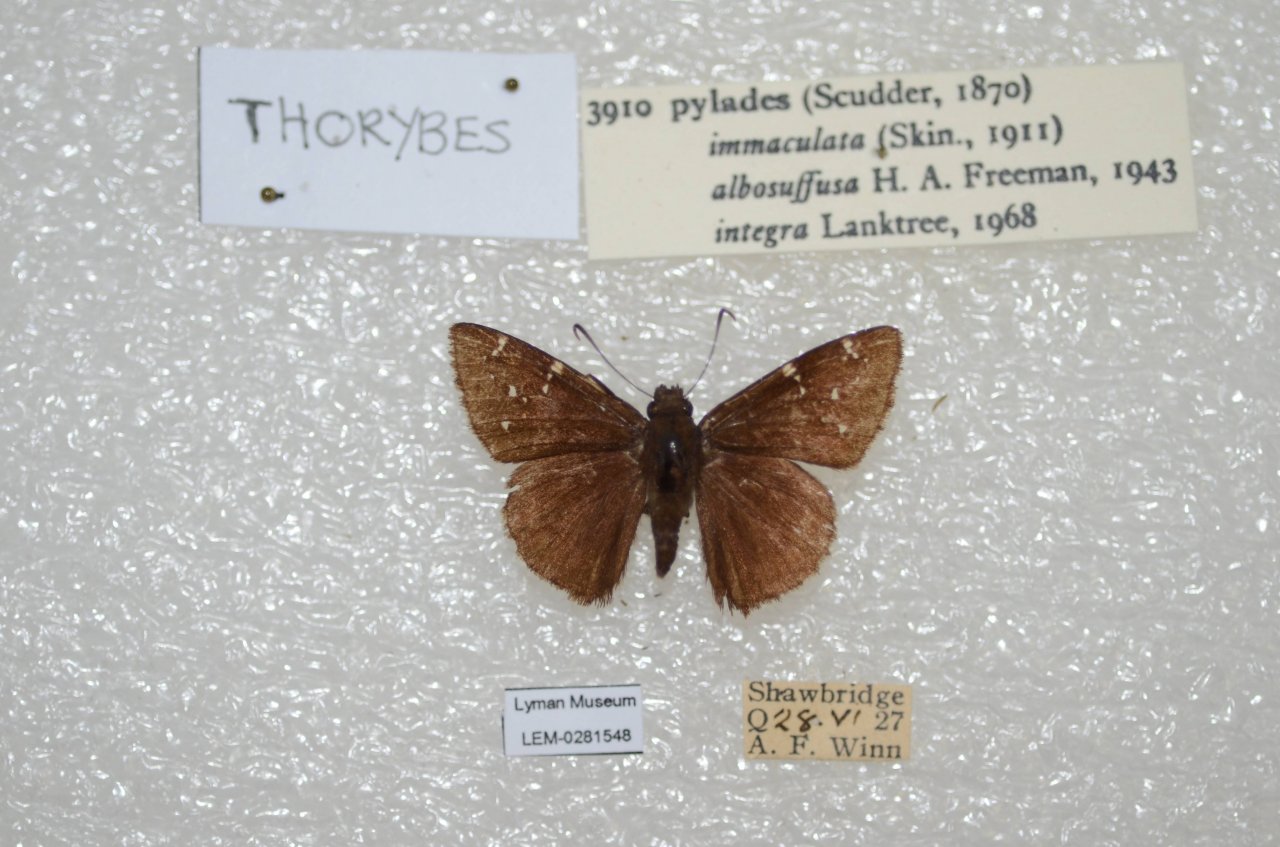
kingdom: Animalia
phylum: Arthropoda
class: Insecta
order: Lepidoptera
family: Hesperiidae
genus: Autochton
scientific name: Autochton
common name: Northern Cloudywing
